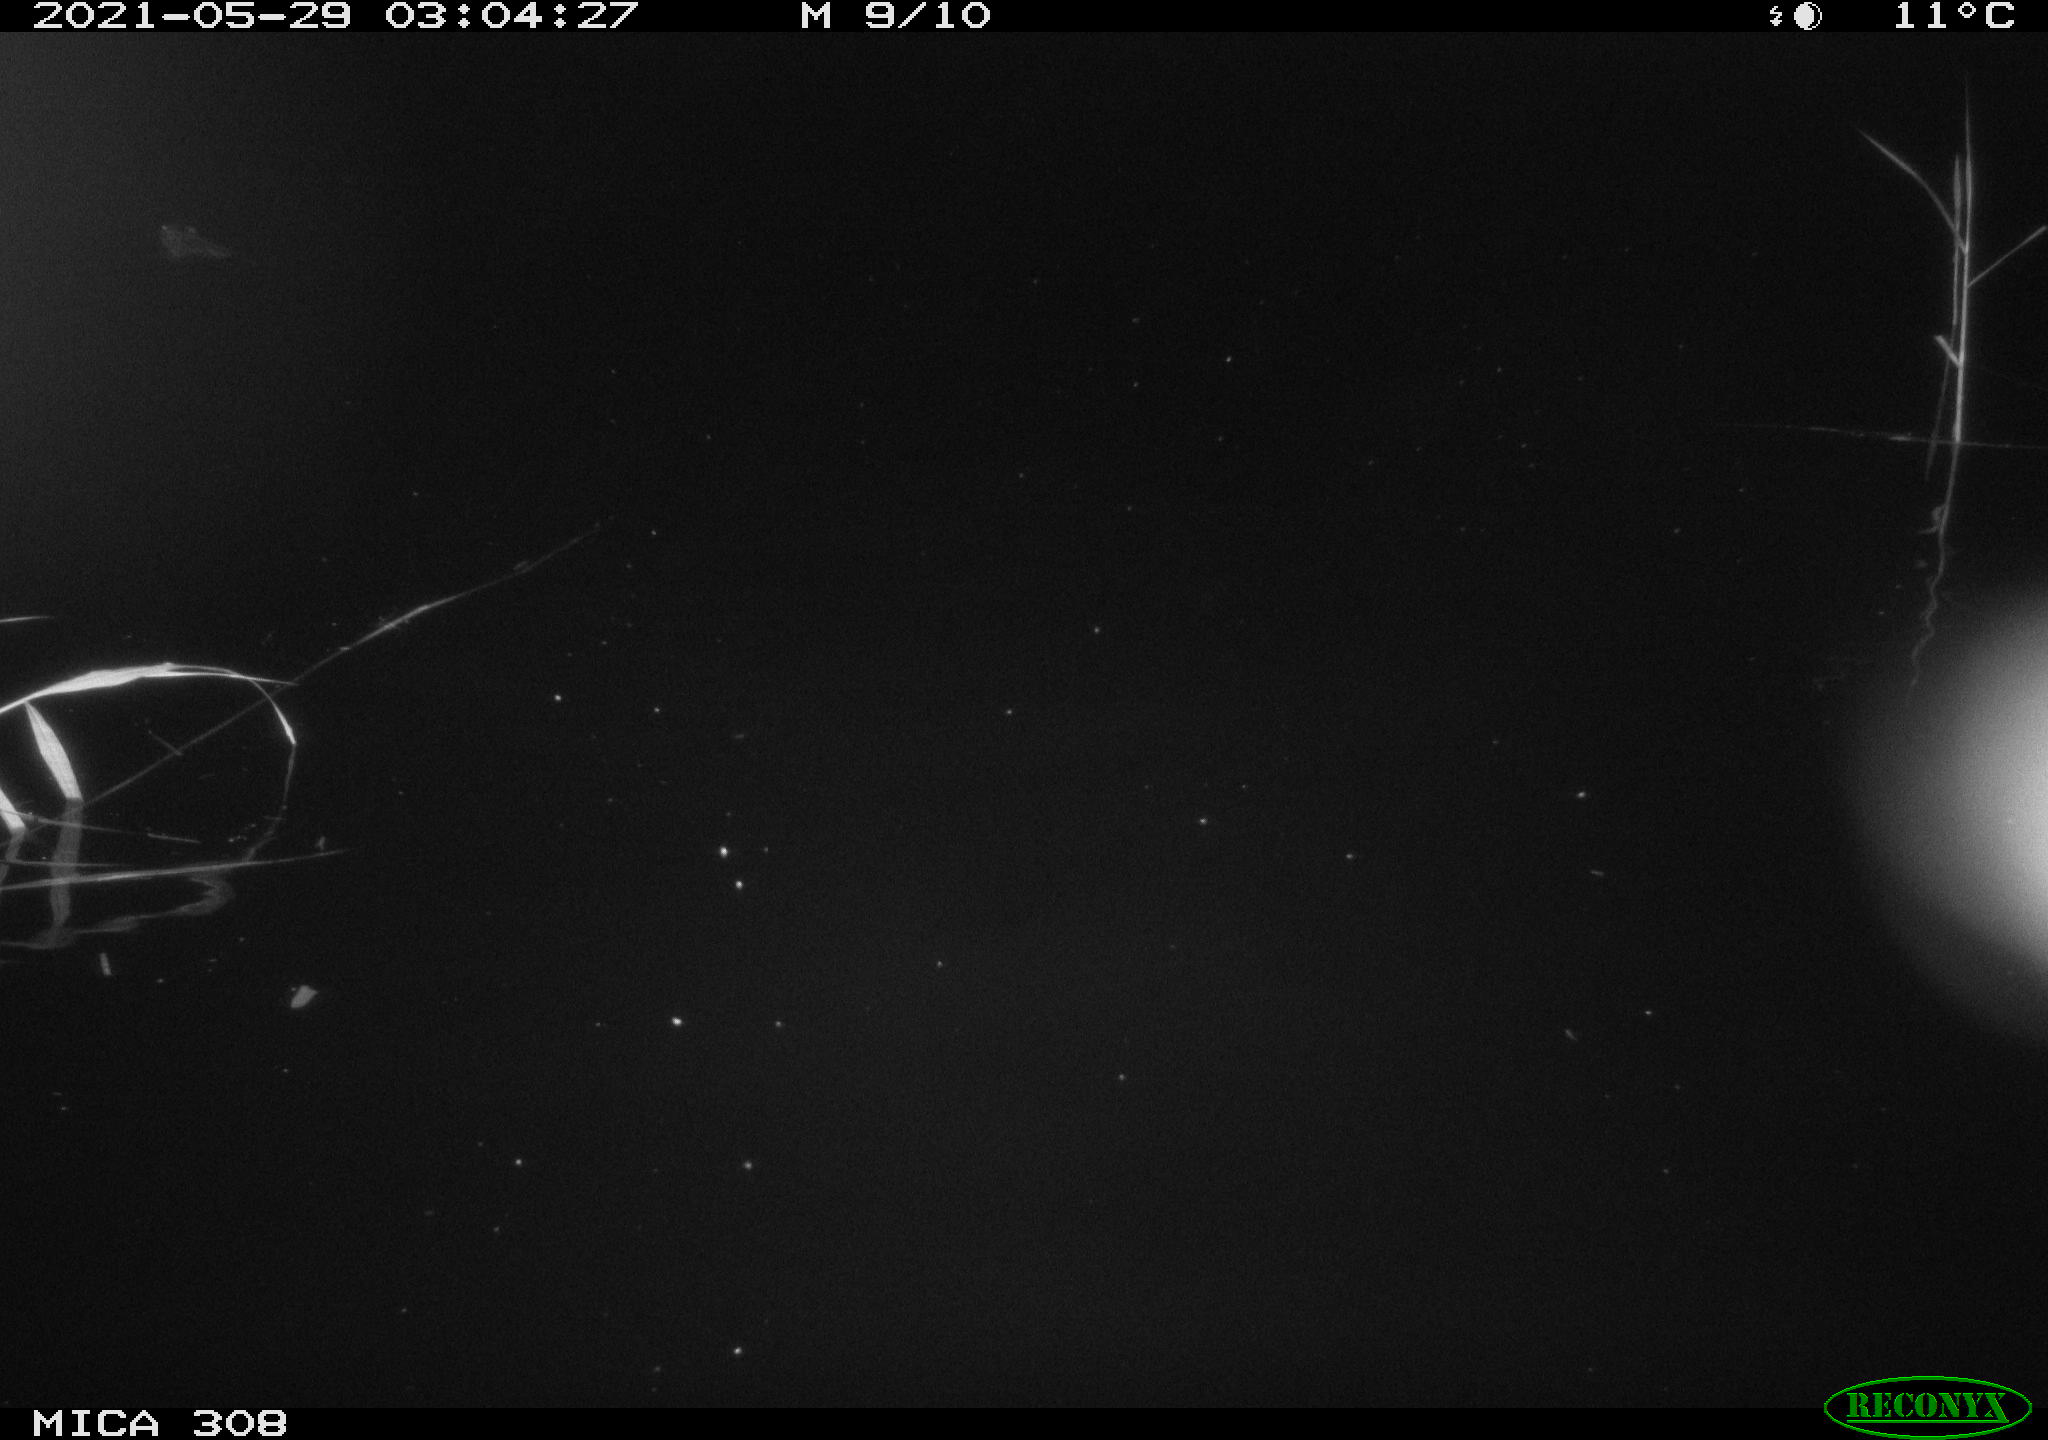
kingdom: Animalia
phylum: Chordata
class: Mammalia
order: Rodentia
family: Cricetidae
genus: Ondatra
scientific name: Ondatra zibethicus
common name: Muskrat
